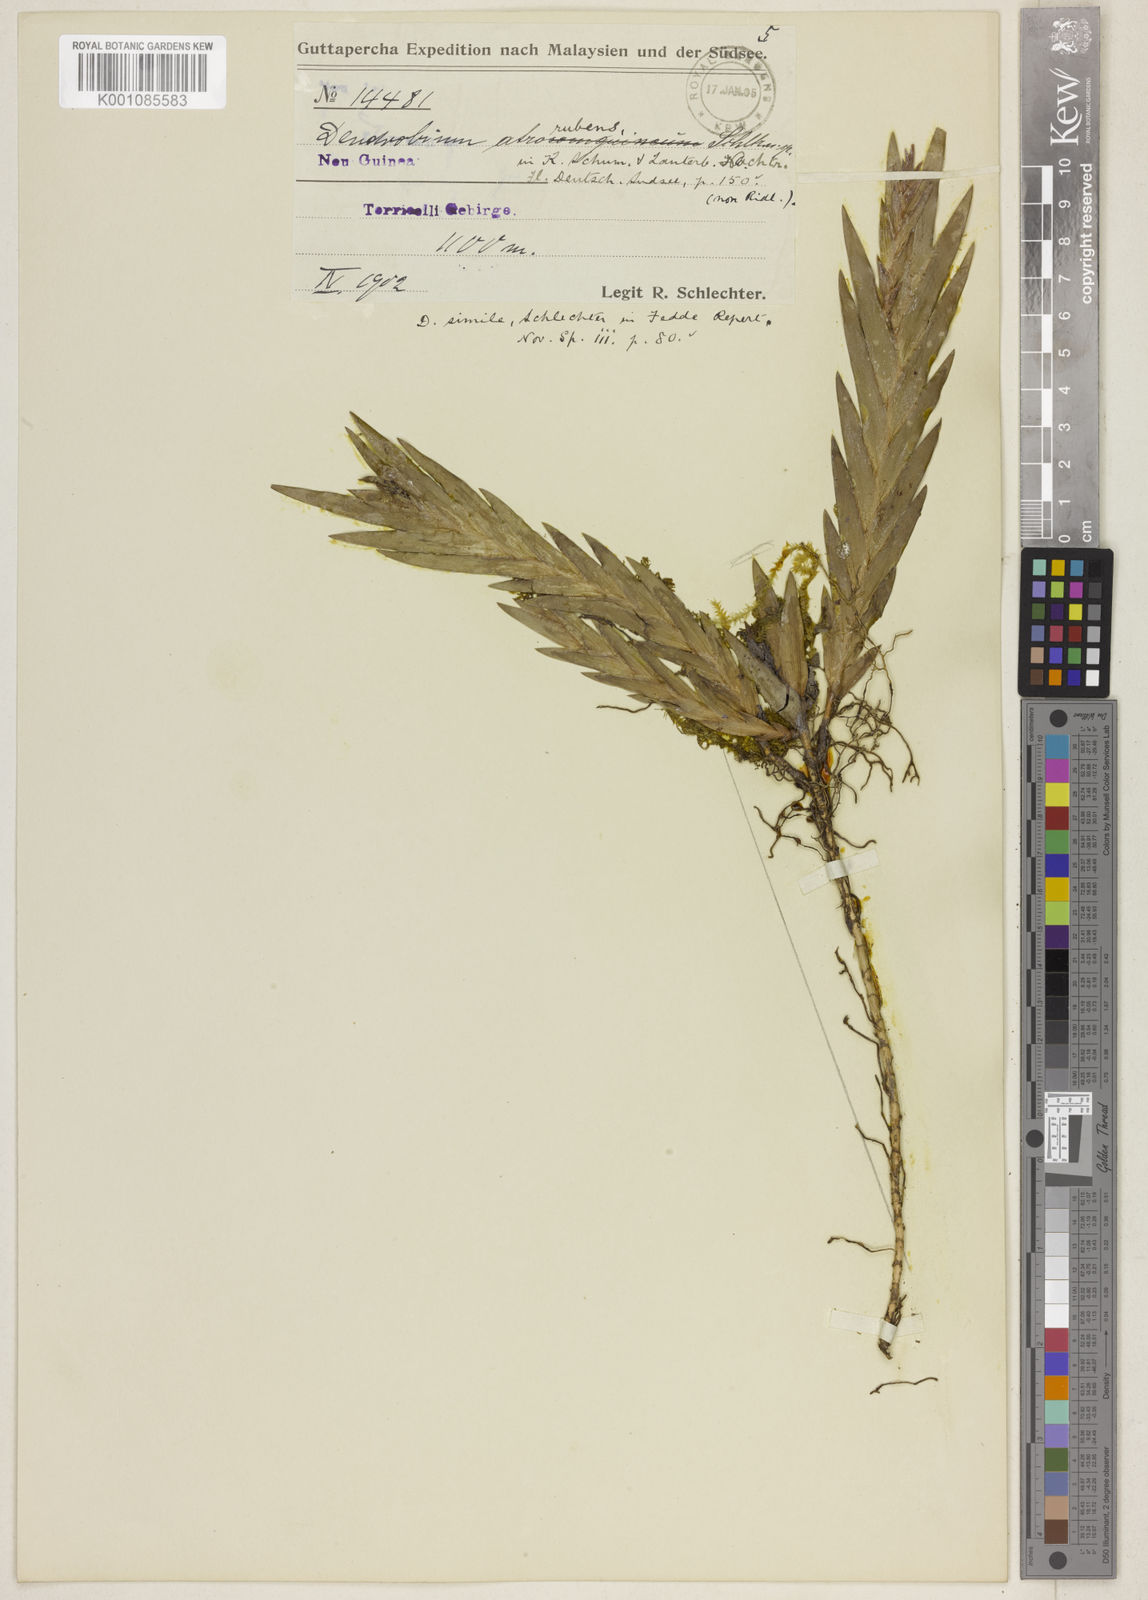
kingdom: Plantae
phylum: Tracheophyta
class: Liliopsida
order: Asparagales
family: Orchidaceae
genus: Oxystophyllum
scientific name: Oxystophyllum torricellianum
